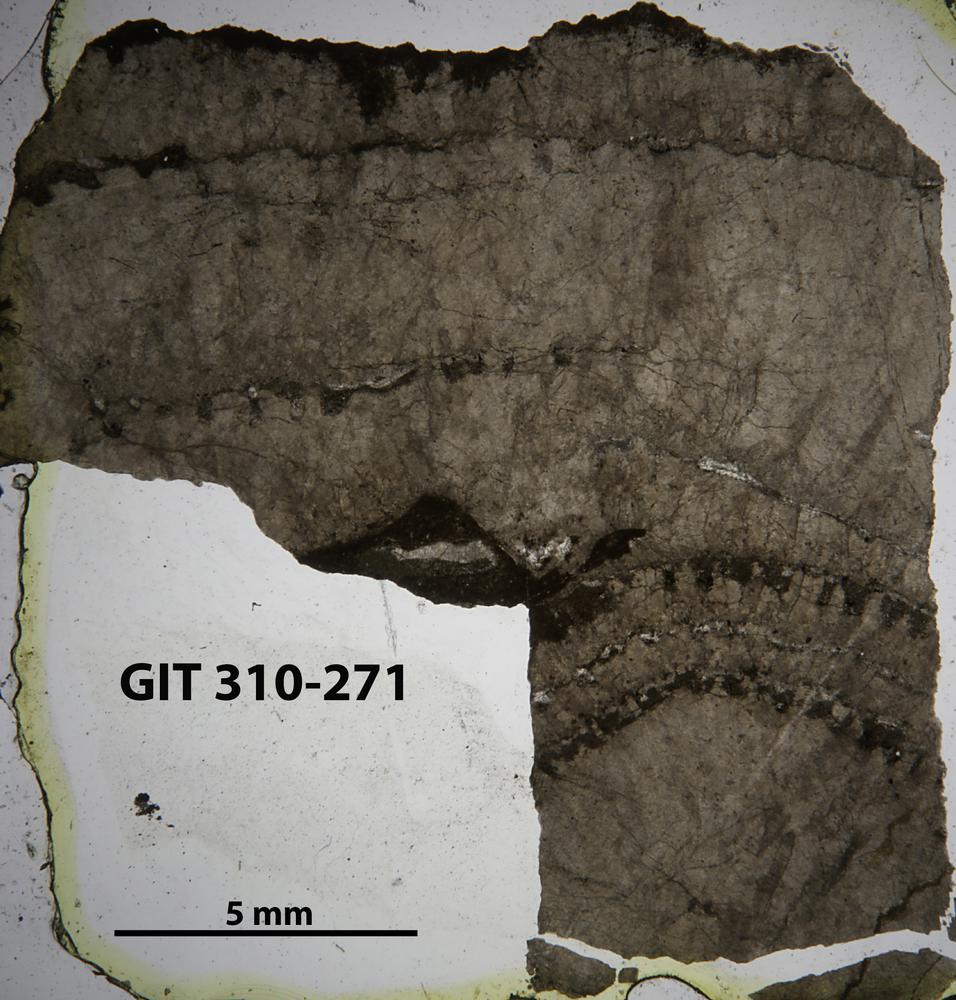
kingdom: Animalia
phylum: Porifera
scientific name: Porifera
